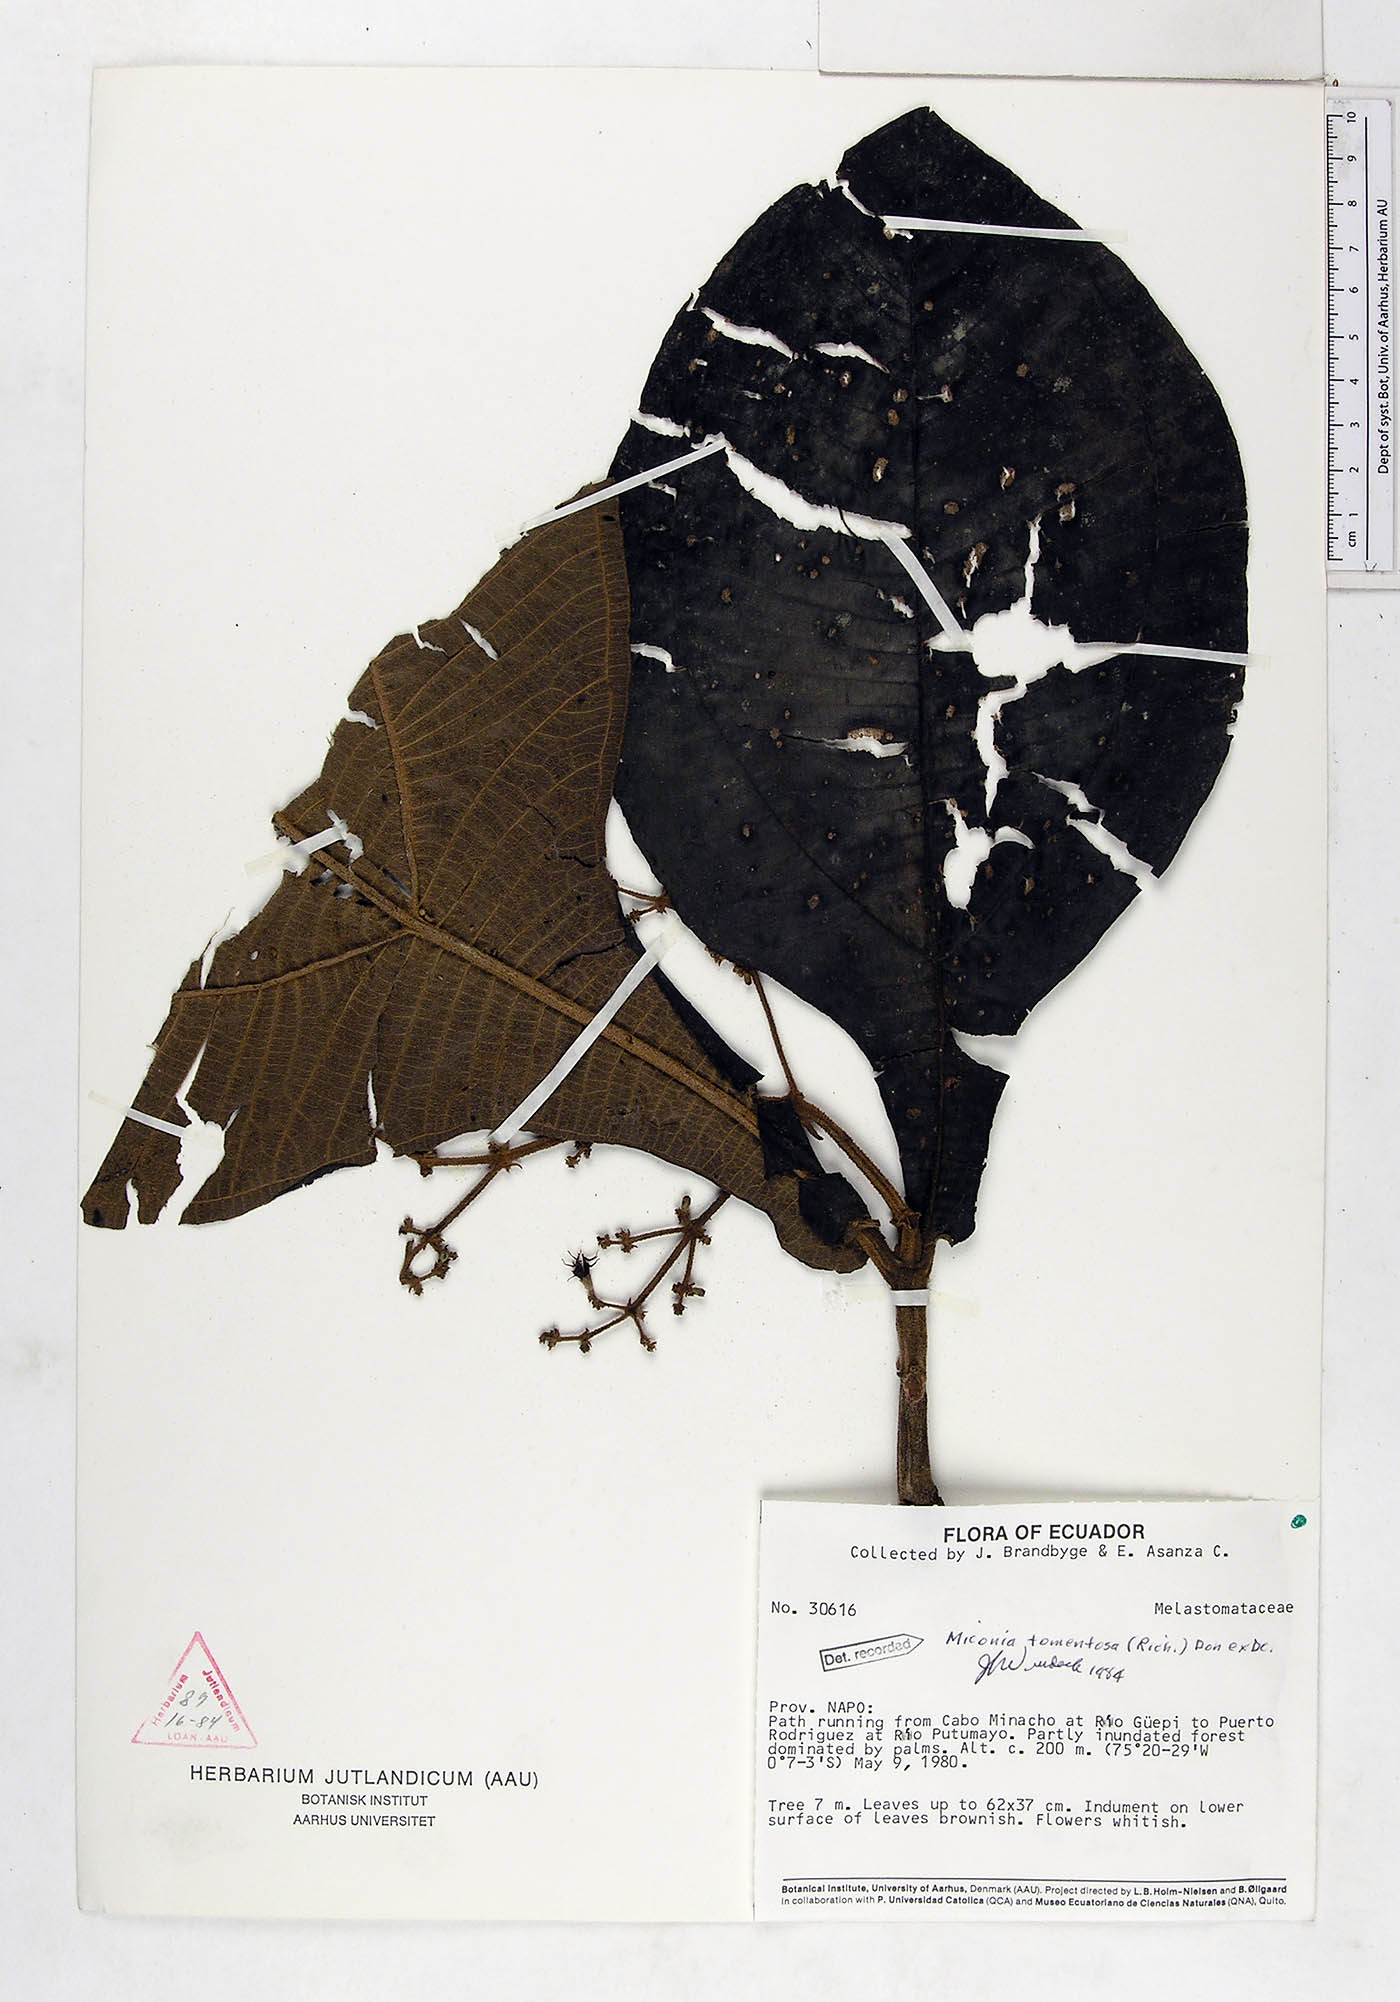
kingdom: Plantae
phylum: Tracheophyta
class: Magnoliopsida
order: Myrtales
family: Melastomataceae
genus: Miconia
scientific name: Miconia tomentosa
